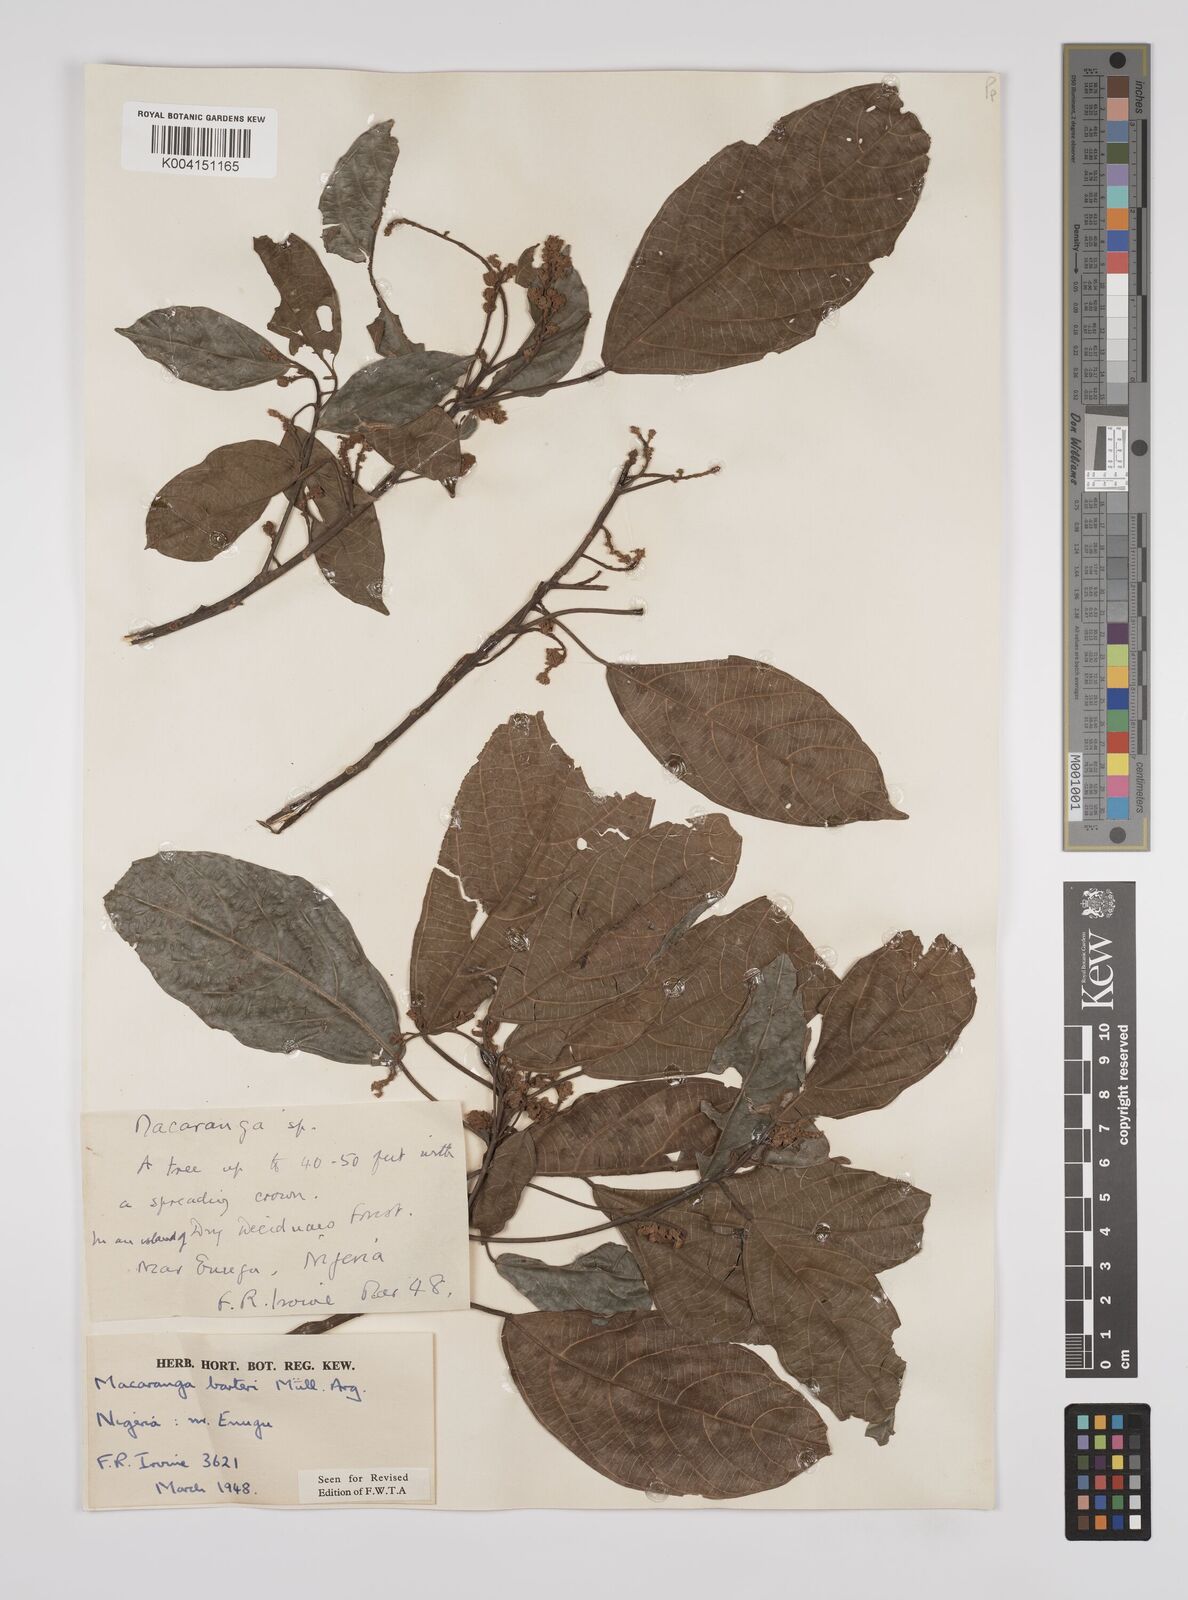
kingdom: Plantae
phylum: Tracheophyta
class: Magnoliopsida
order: Malpighiales
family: Euphorbiaceae
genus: Macaranga
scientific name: Macaranga barteri
